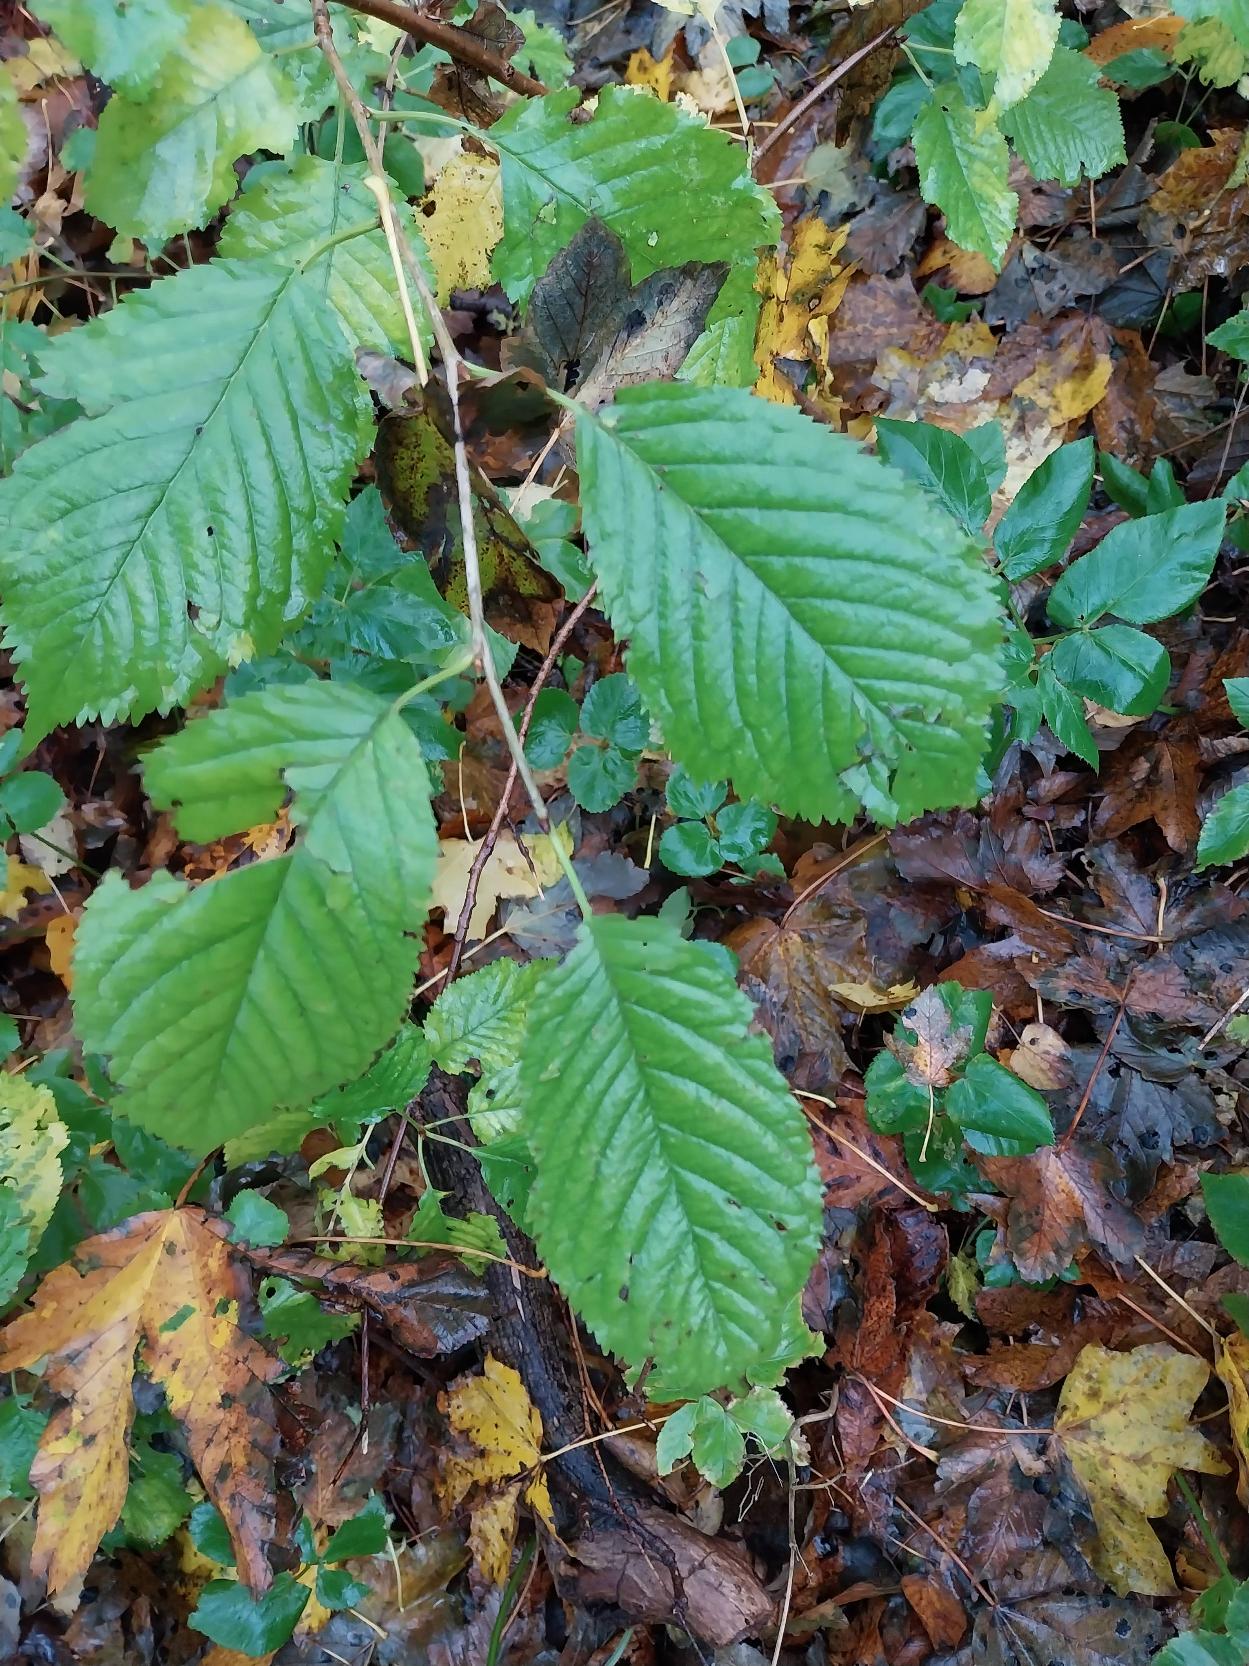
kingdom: Plantae
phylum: Tracheophyta
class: Magnoliopsida
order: Rosales
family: Rosaceae
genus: Prunus
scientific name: Prunus avium
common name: Fugle-kirsebær
